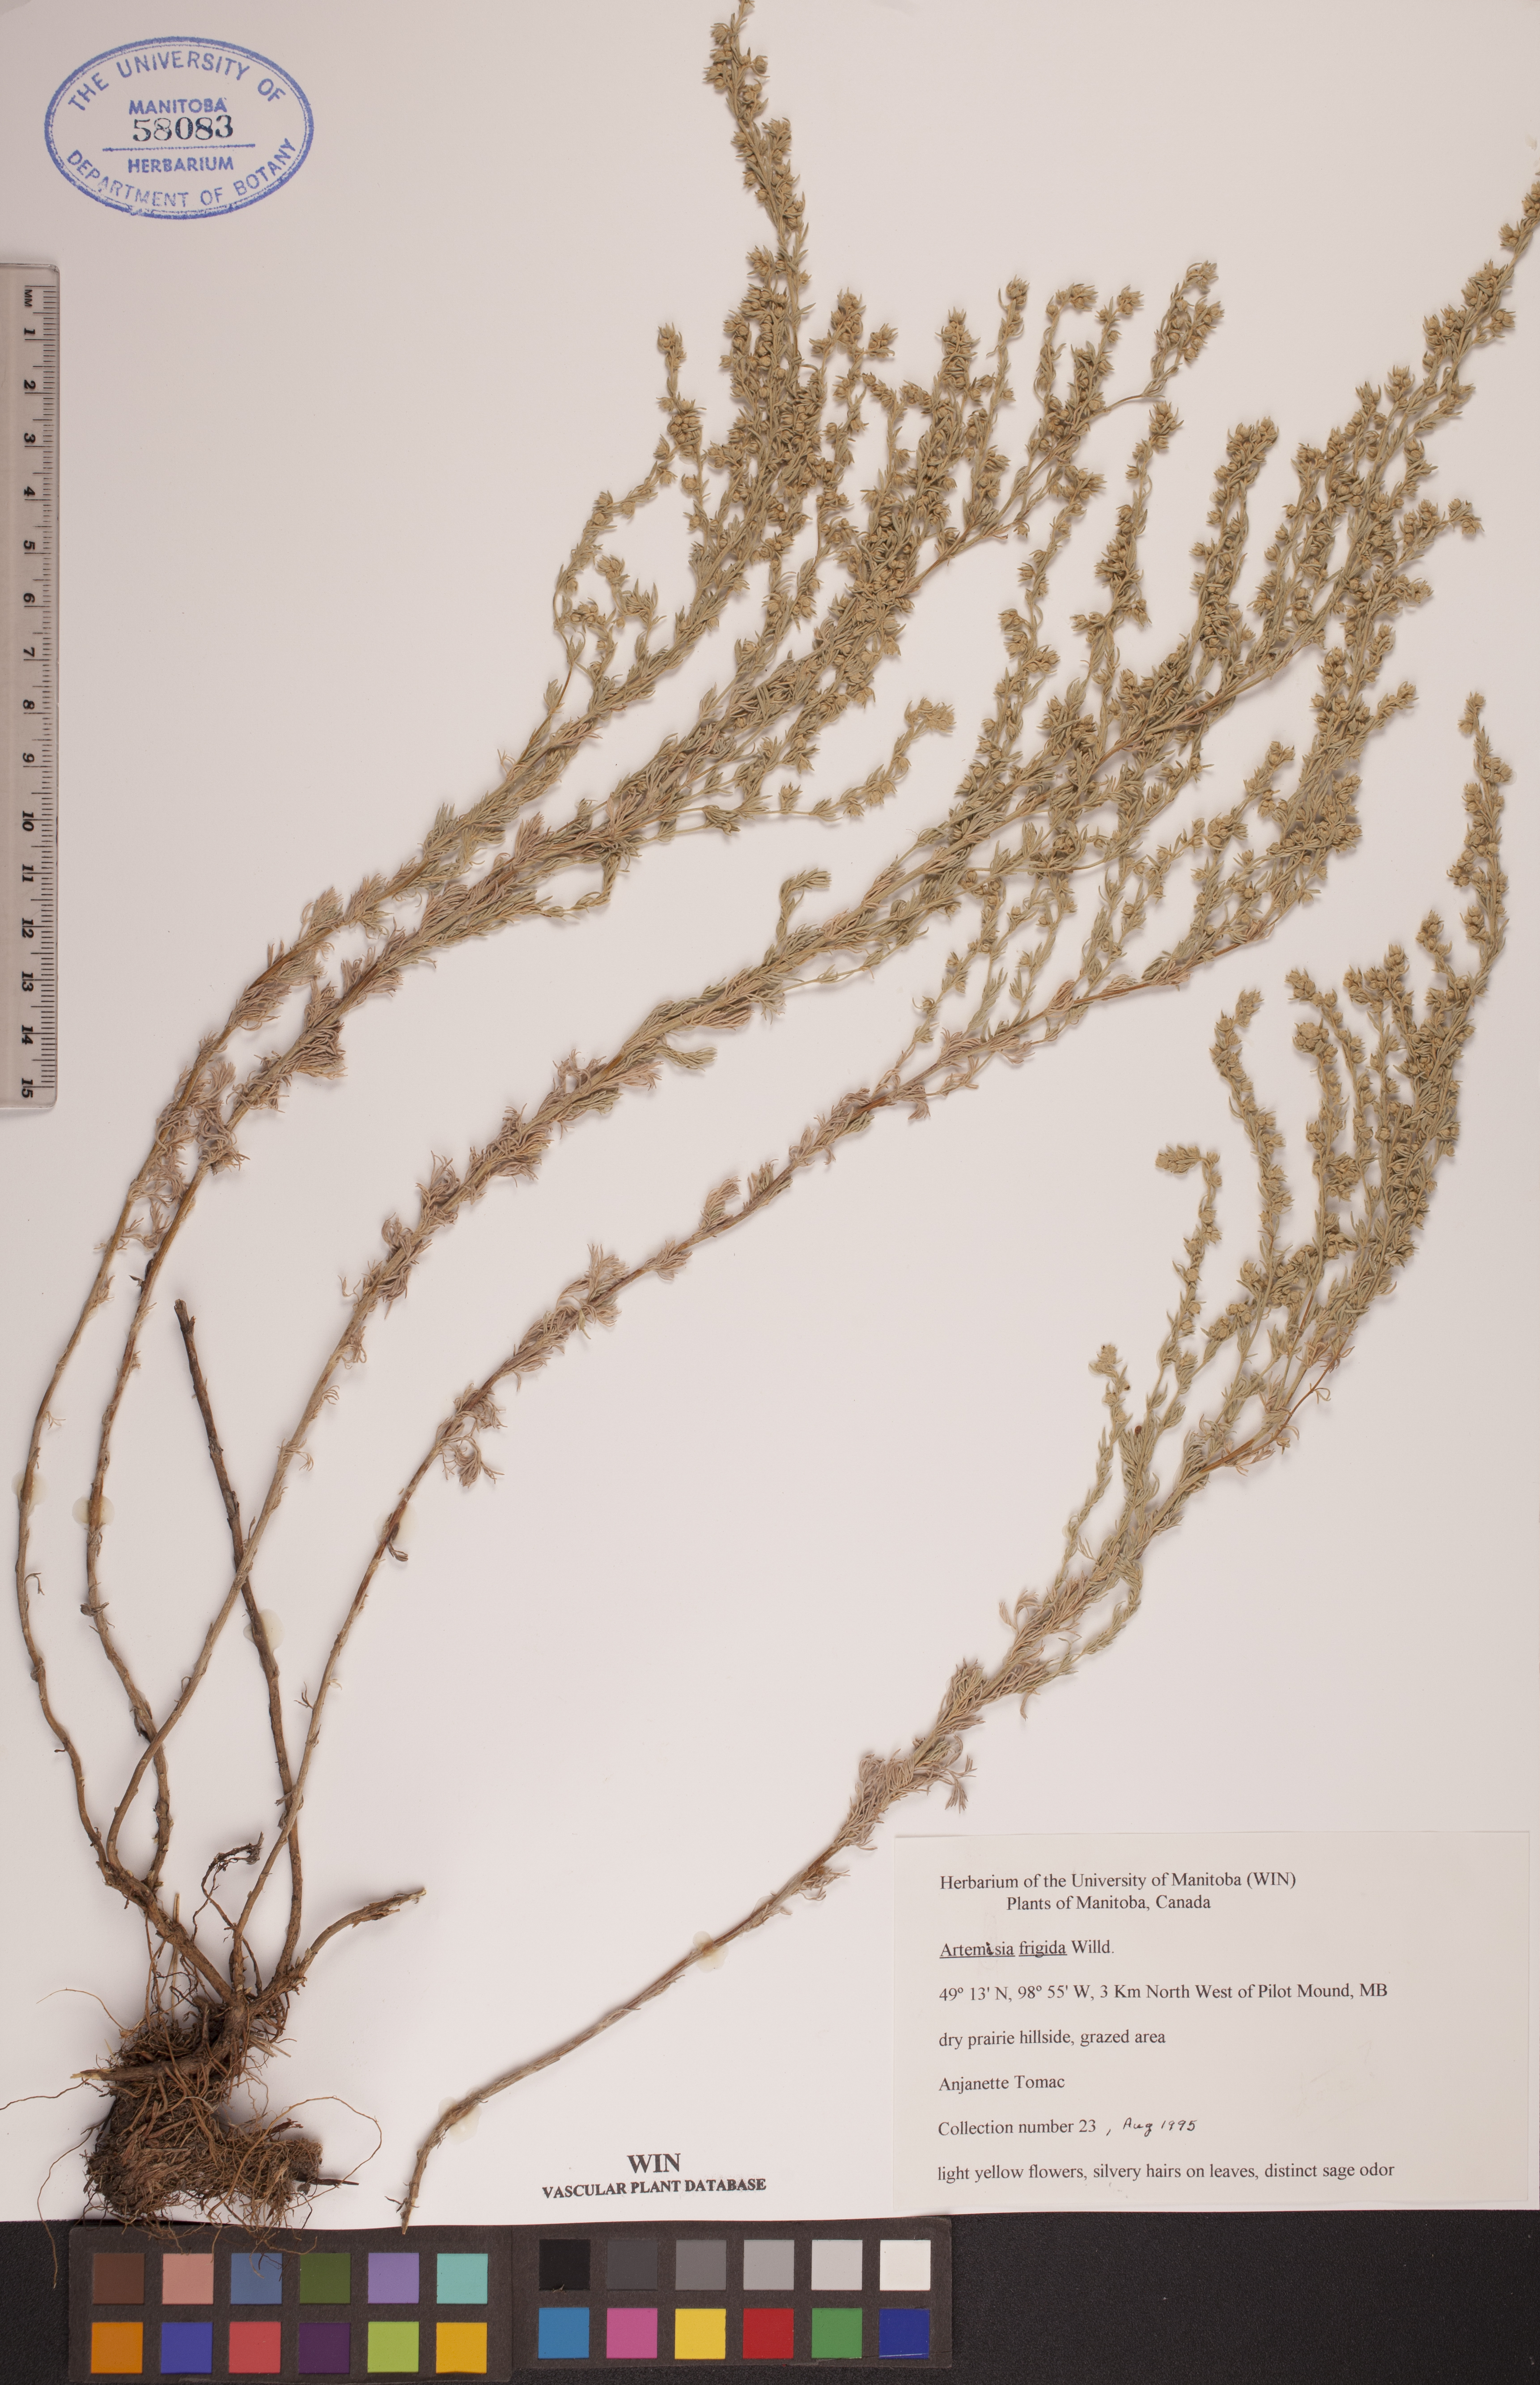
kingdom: Plantae
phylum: Tracheophyta
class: Magnoliopsida
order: Asterales
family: Asteraceae
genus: Artemisia
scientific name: Artemisia frigida
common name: Prairie sagewort
